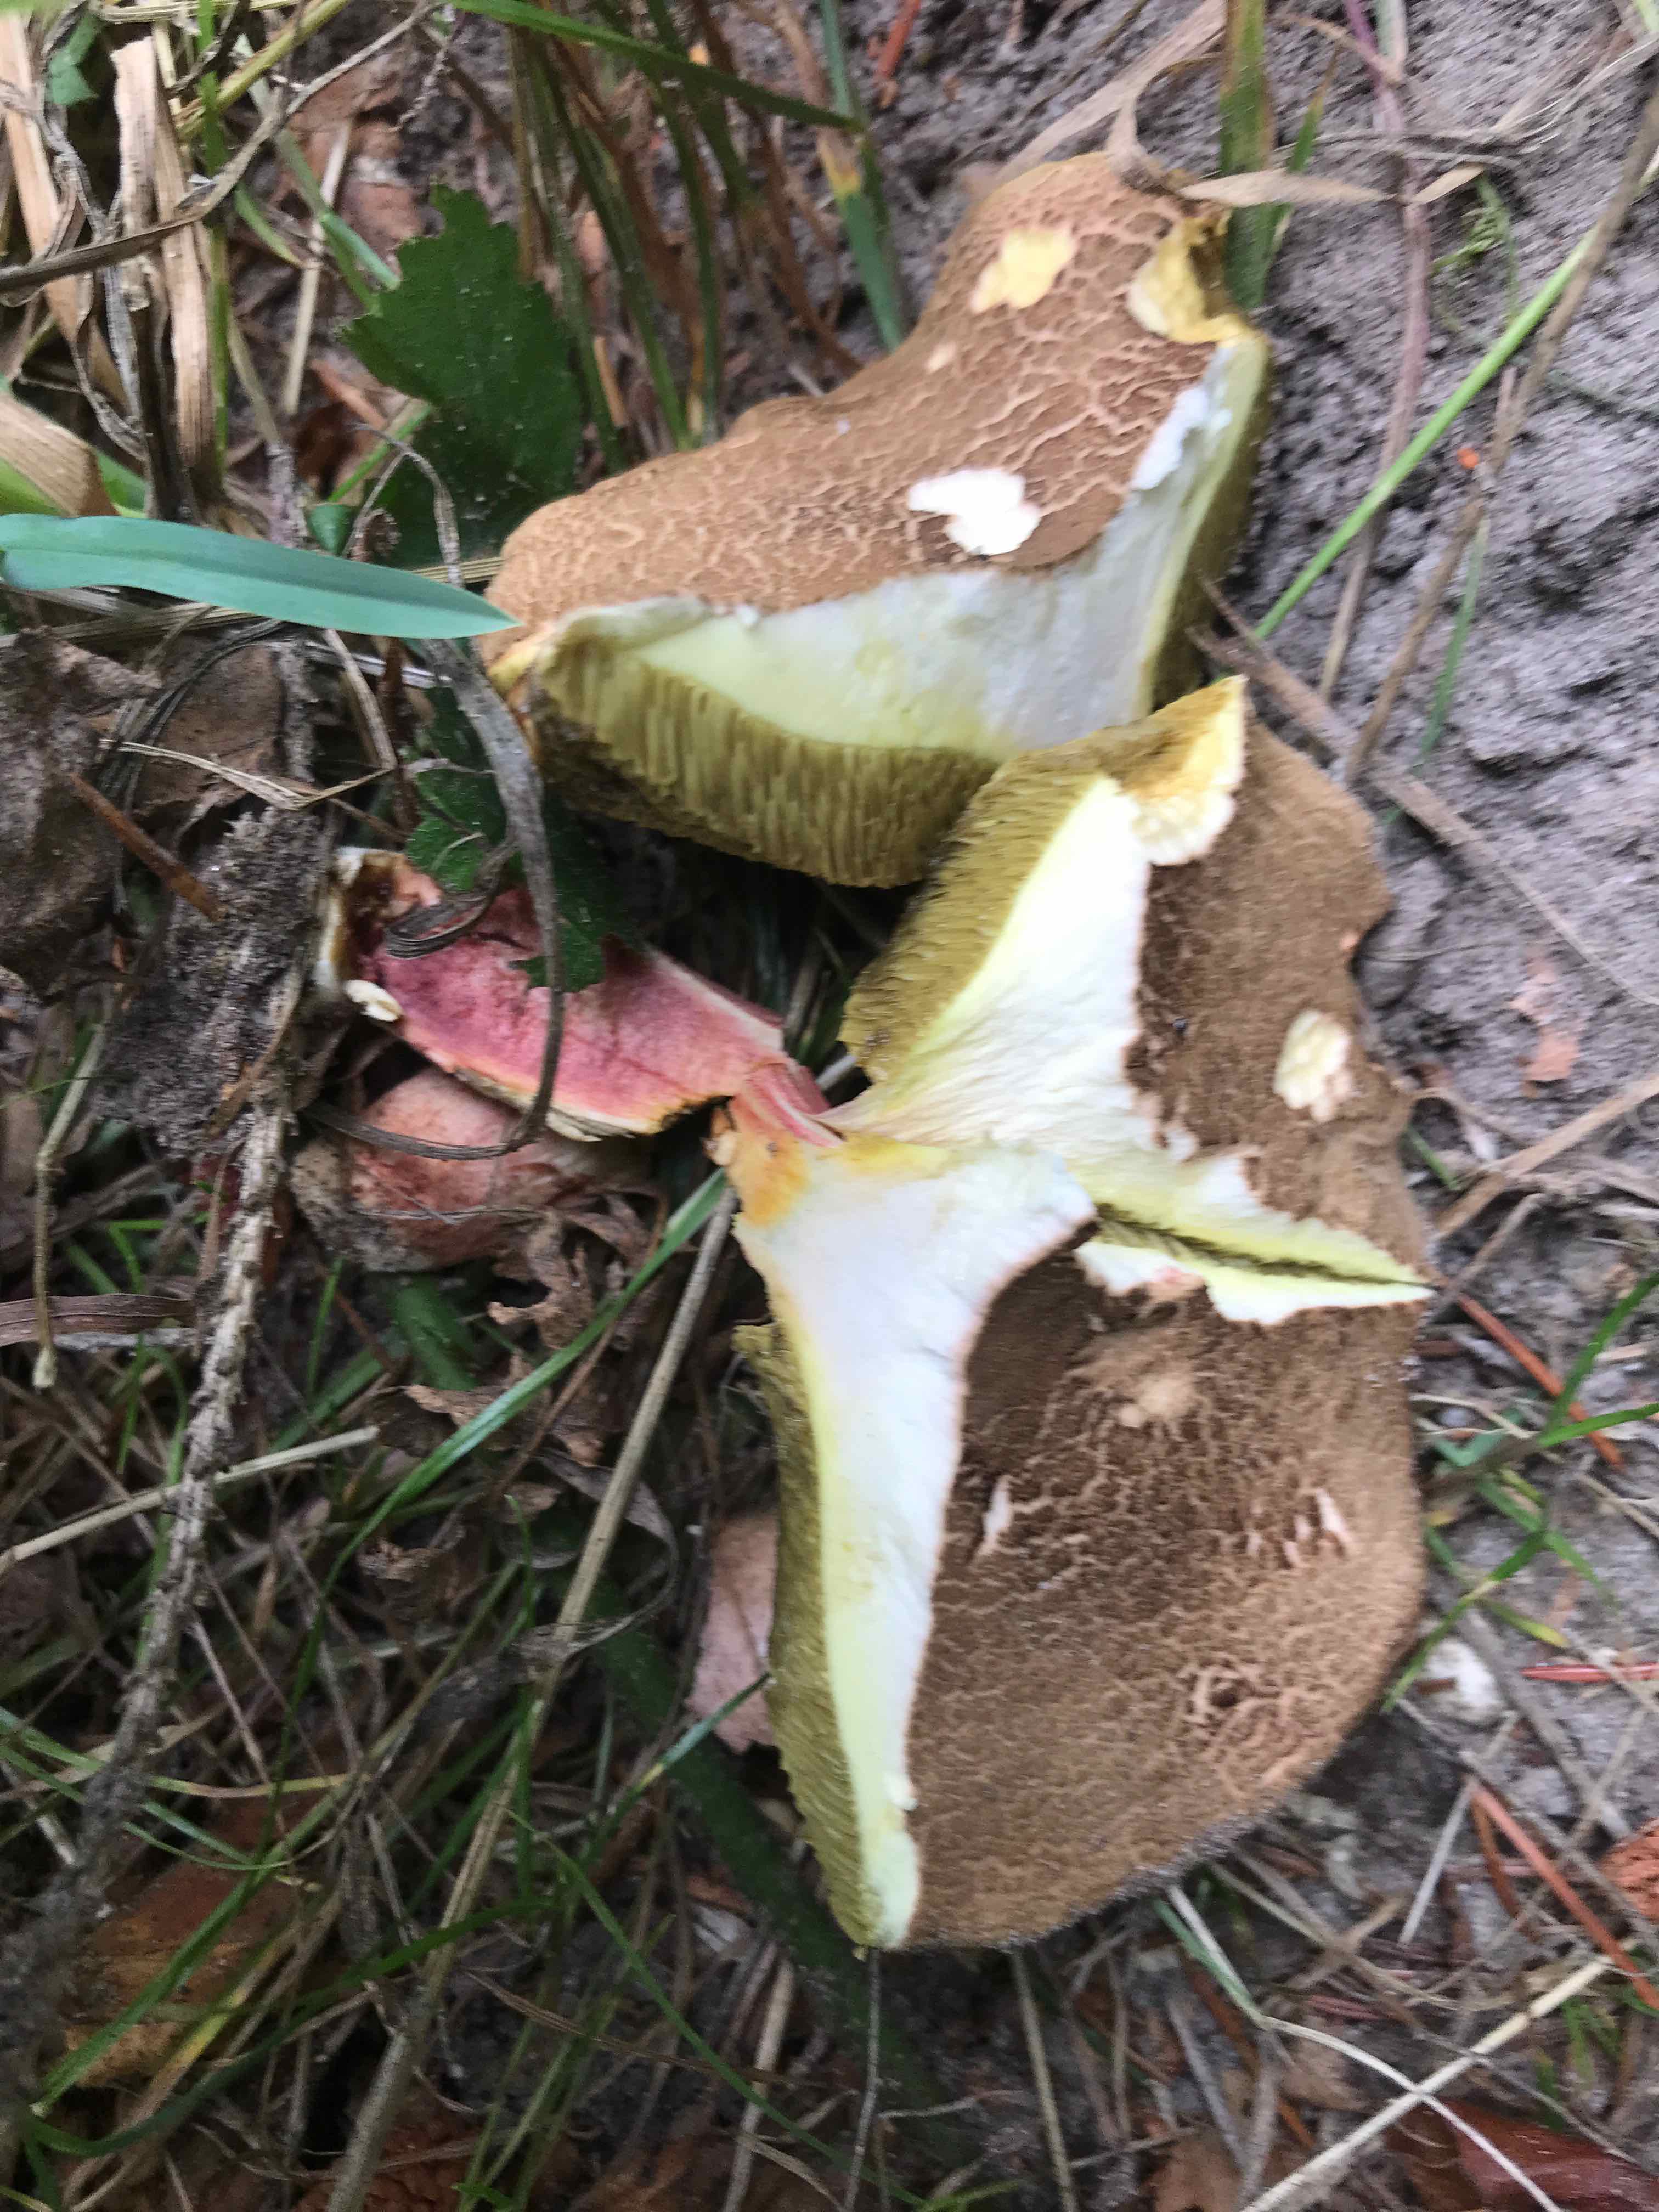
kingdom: Fungi
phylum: Basidiomycota
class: Agaricomycetes
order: Boletales
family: Boletaceae
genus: Xerocomellus
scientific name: Xerocomellus chrysenteron
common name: rødsprukken rørhat
